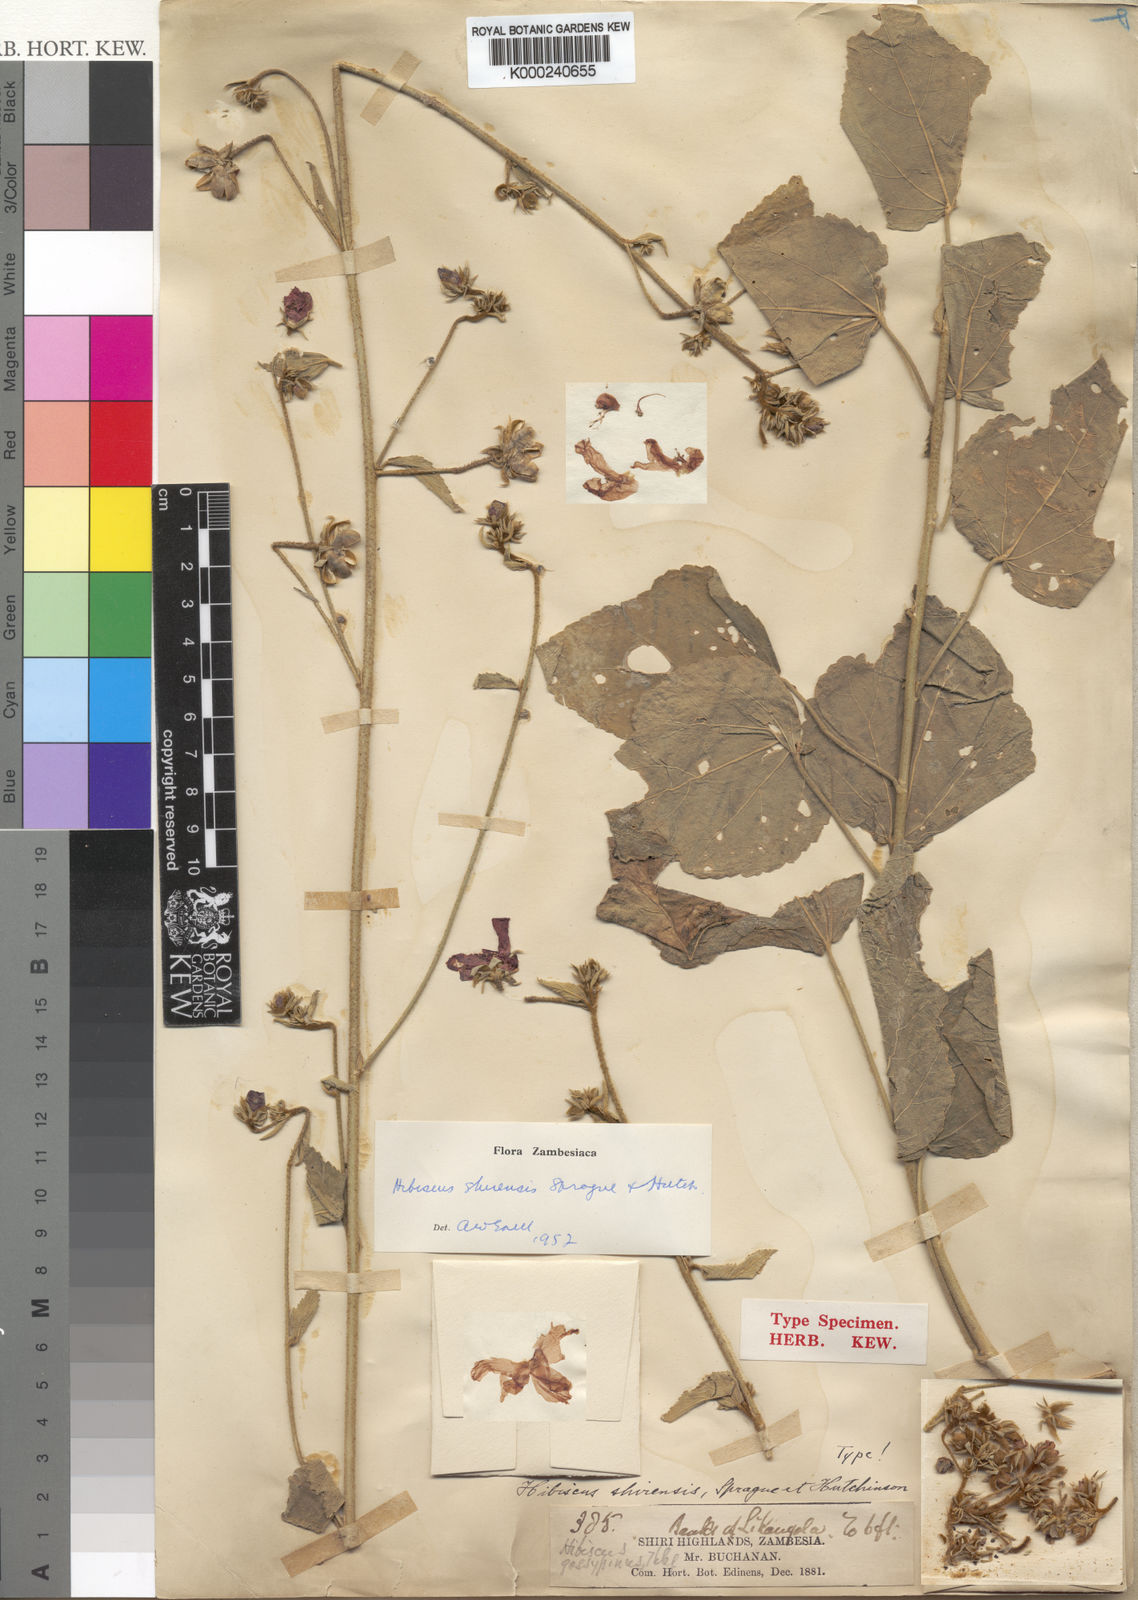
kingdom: Plantae
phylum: Tracheophyta
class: Magnoliopsida
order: Malvales
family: Malvaceae
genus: Hibiscus
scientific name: Hibiscus shirensis
